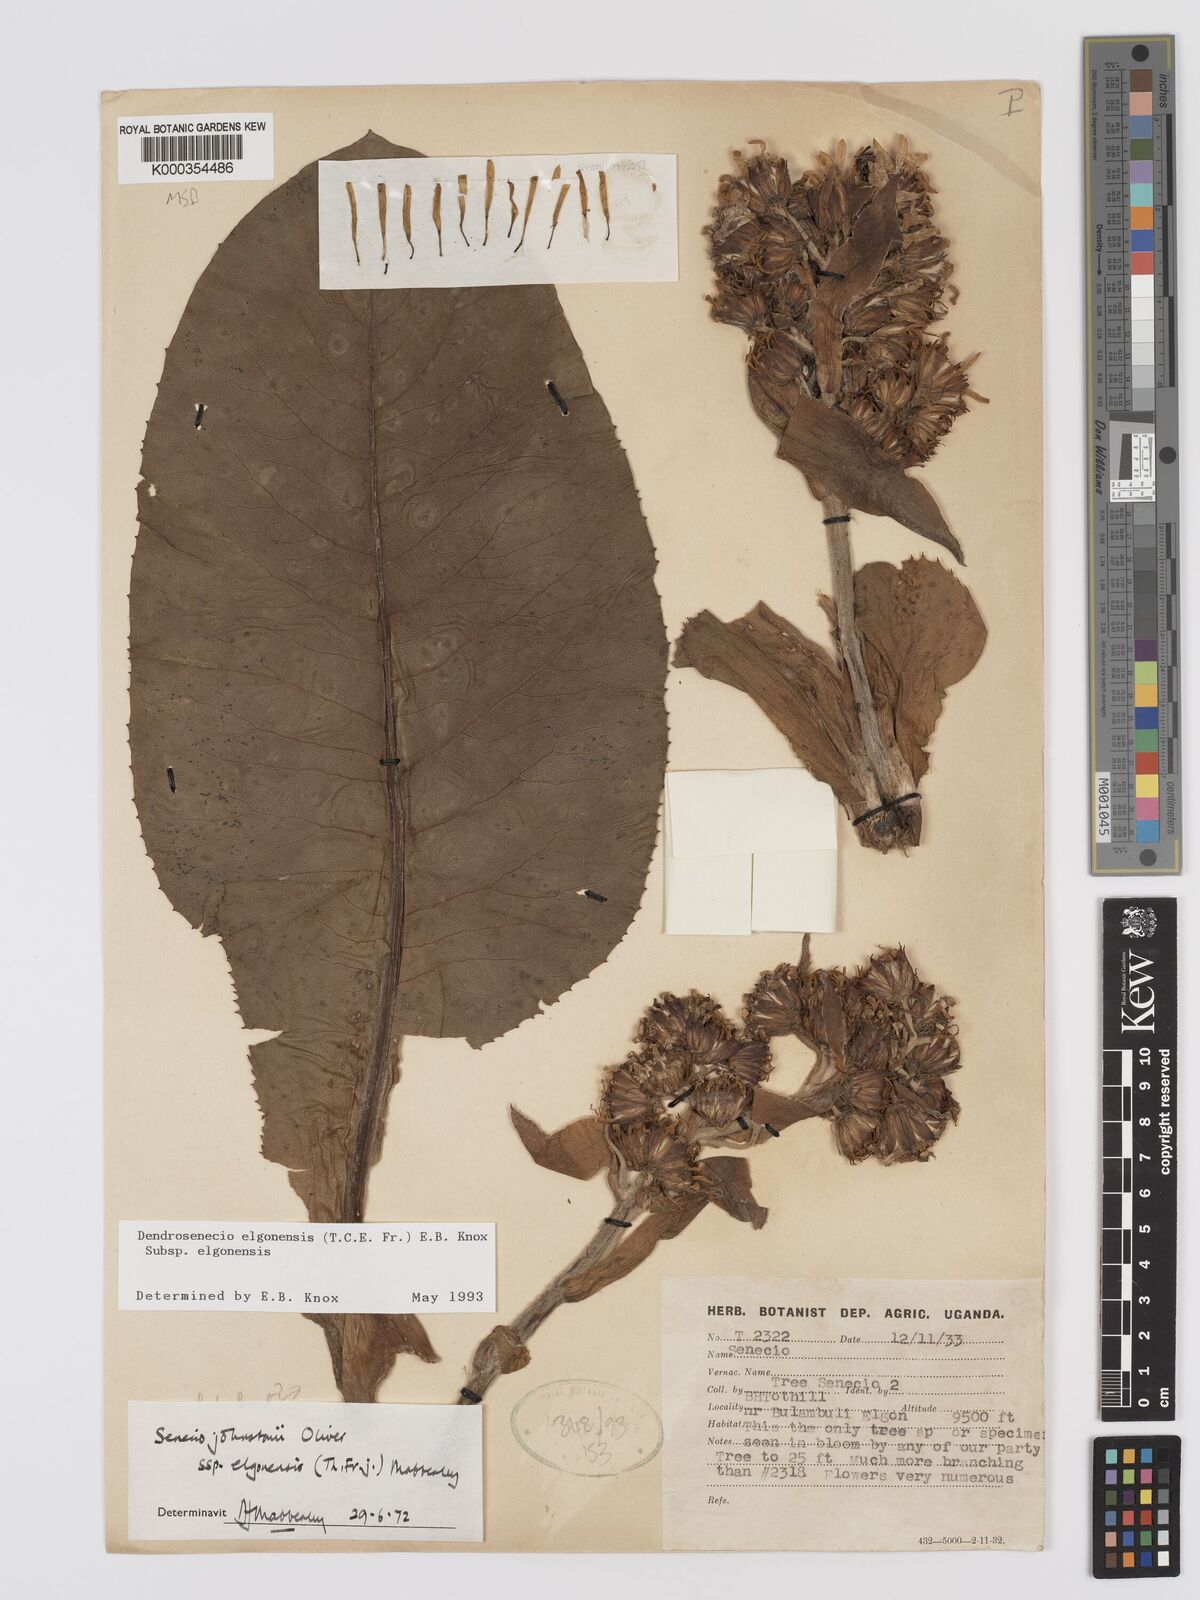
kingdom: Plantae
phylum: Tracheophyta
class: Magnoliopsida
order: Asterales
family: Asteraceae
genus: Dendrosenecio
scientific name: Dendrosenecio elgonensis
